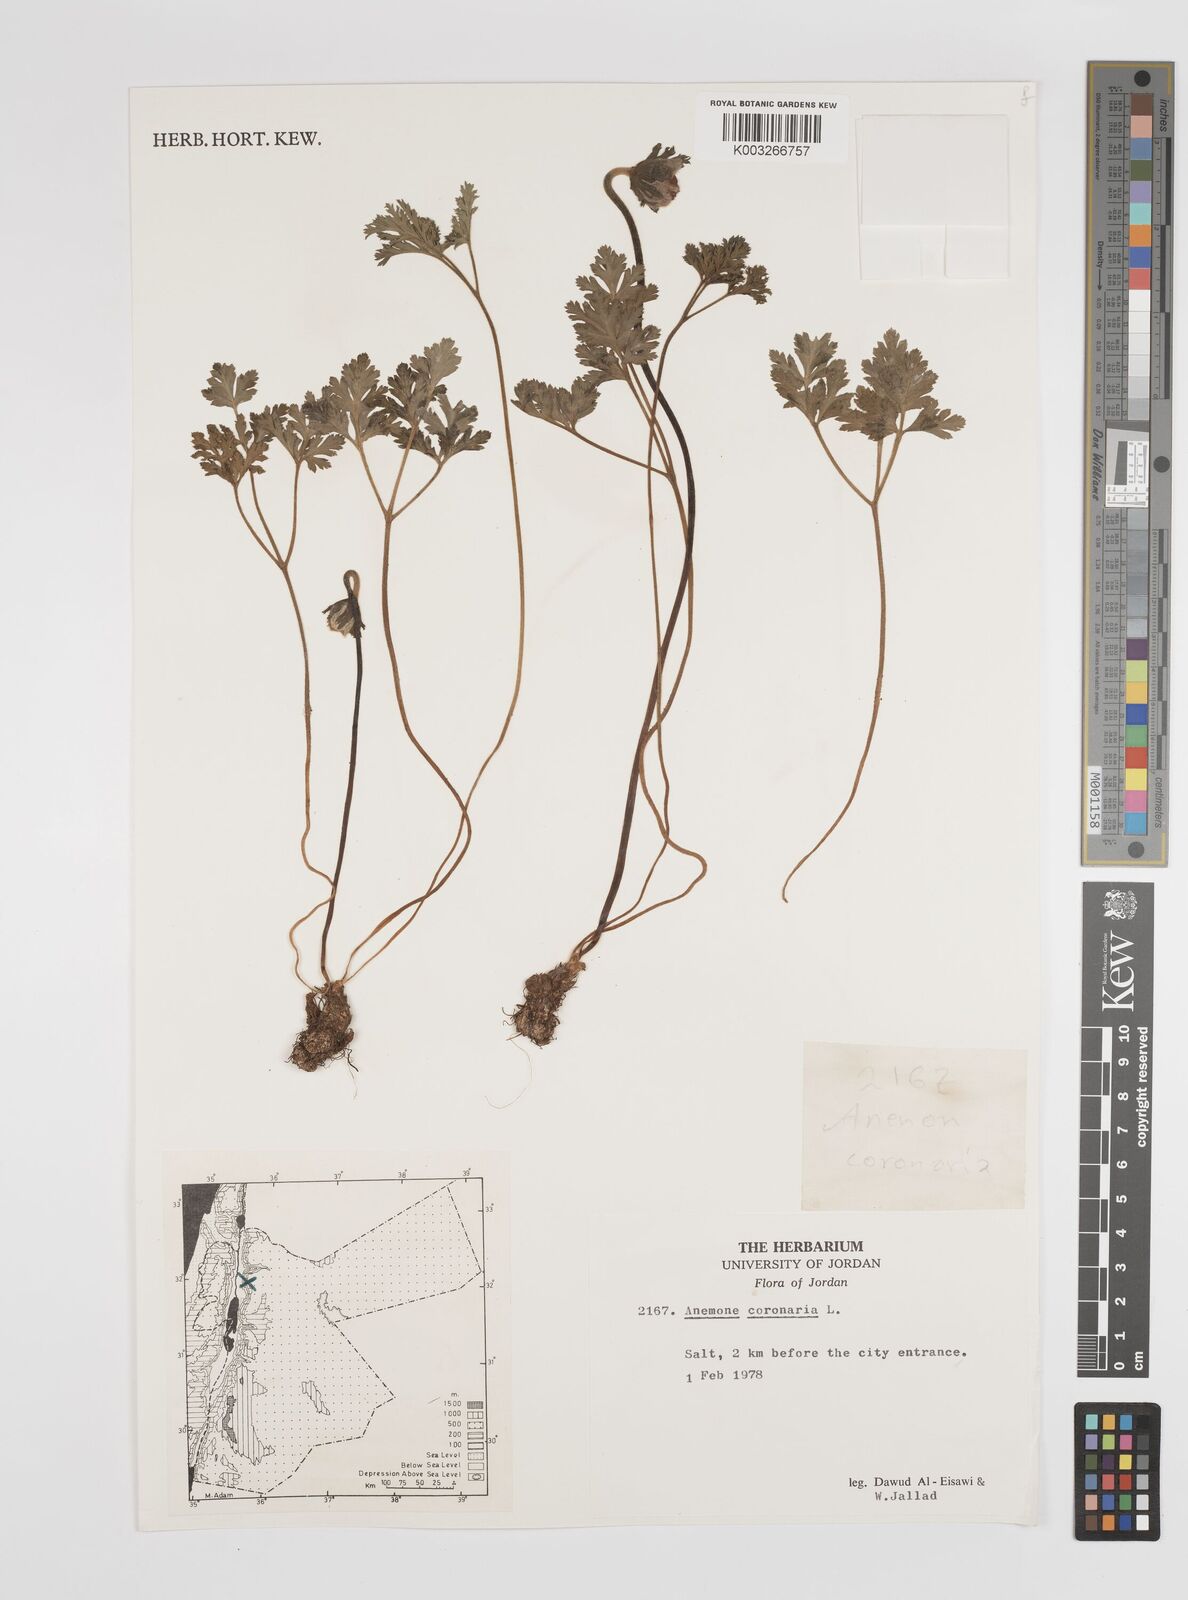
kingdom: Plantae
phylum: Tracheophyta
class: Magnoliopsida
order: Ranunculales
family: Ranunculaceae
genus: Anemone
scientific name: Anemone coronaria
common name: Poppy anemone
